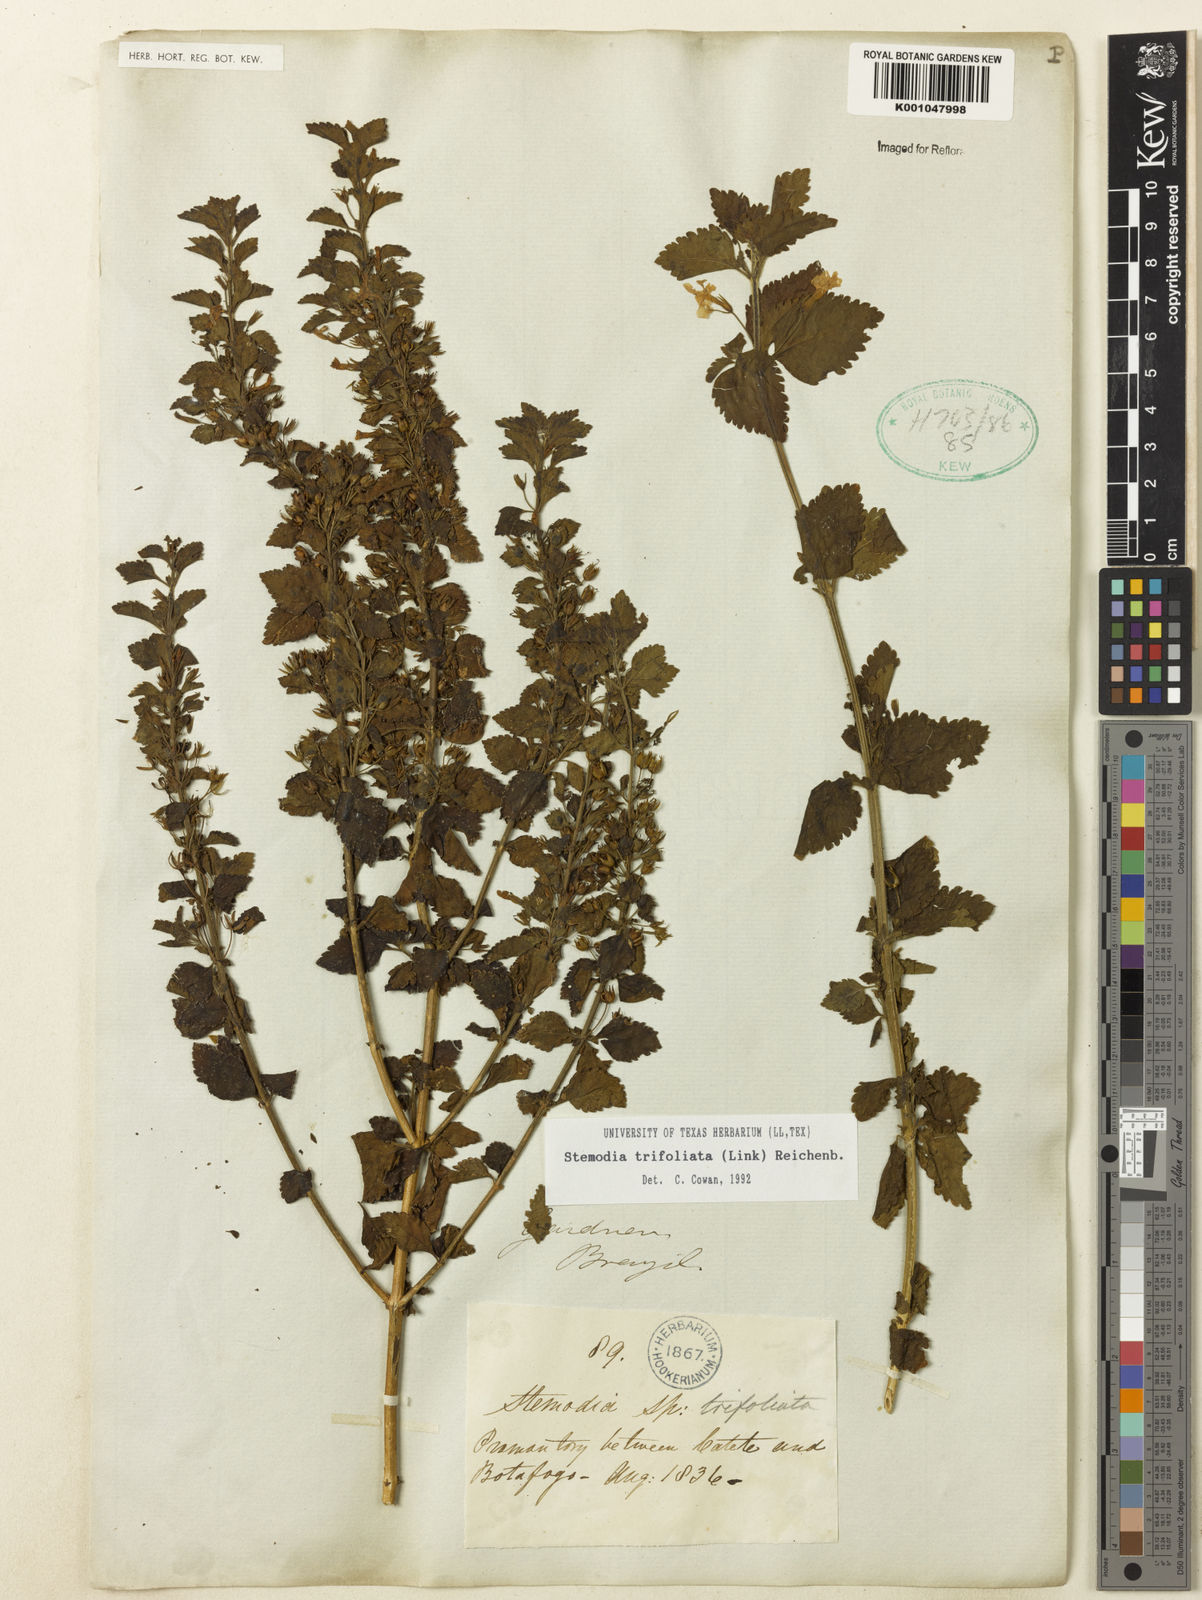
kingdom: Plantae
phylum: Tracheophyta
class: Magnoliopsida
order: Lamiales
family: Plantaginaceae
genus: Stemodia
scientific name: Stemodia trifoliata
